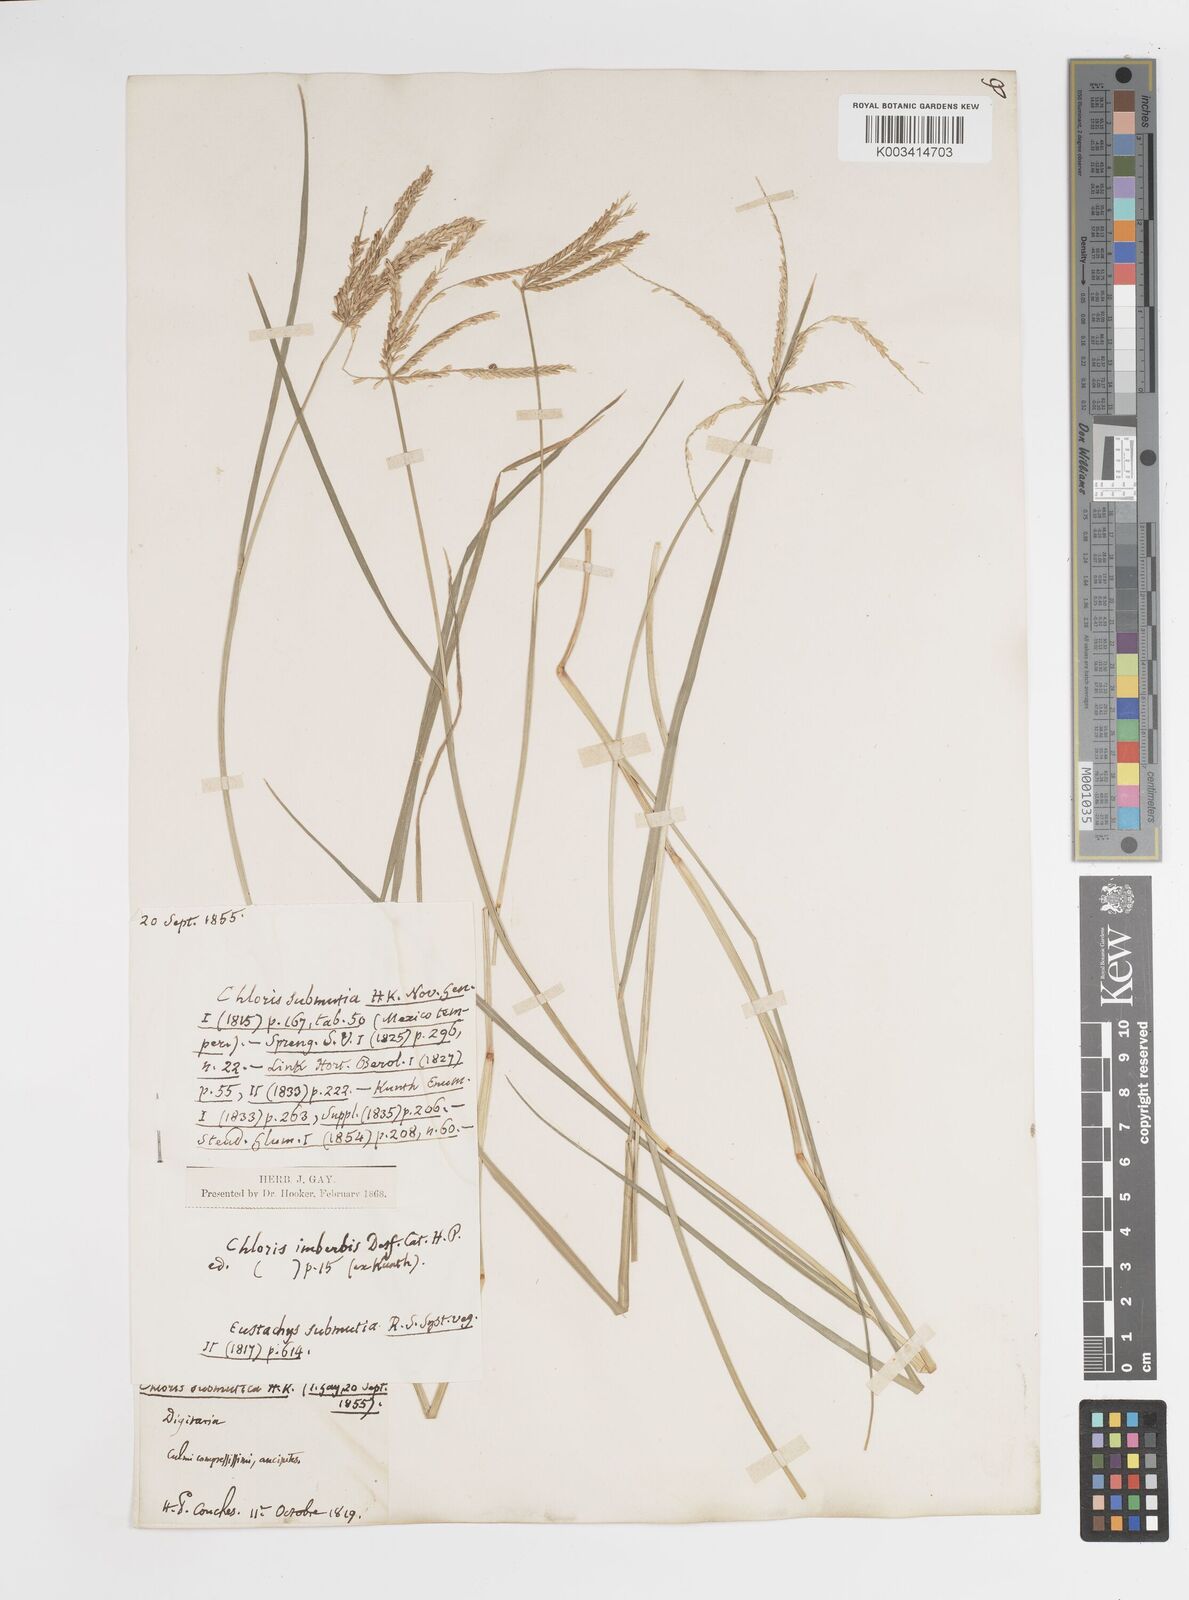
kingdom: Plantae
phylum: Tracheophyta
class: Liliopsida
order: Poales
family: Poaceae
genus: Chloris
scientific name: Chloris submutica
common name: Mexican windmill grass
